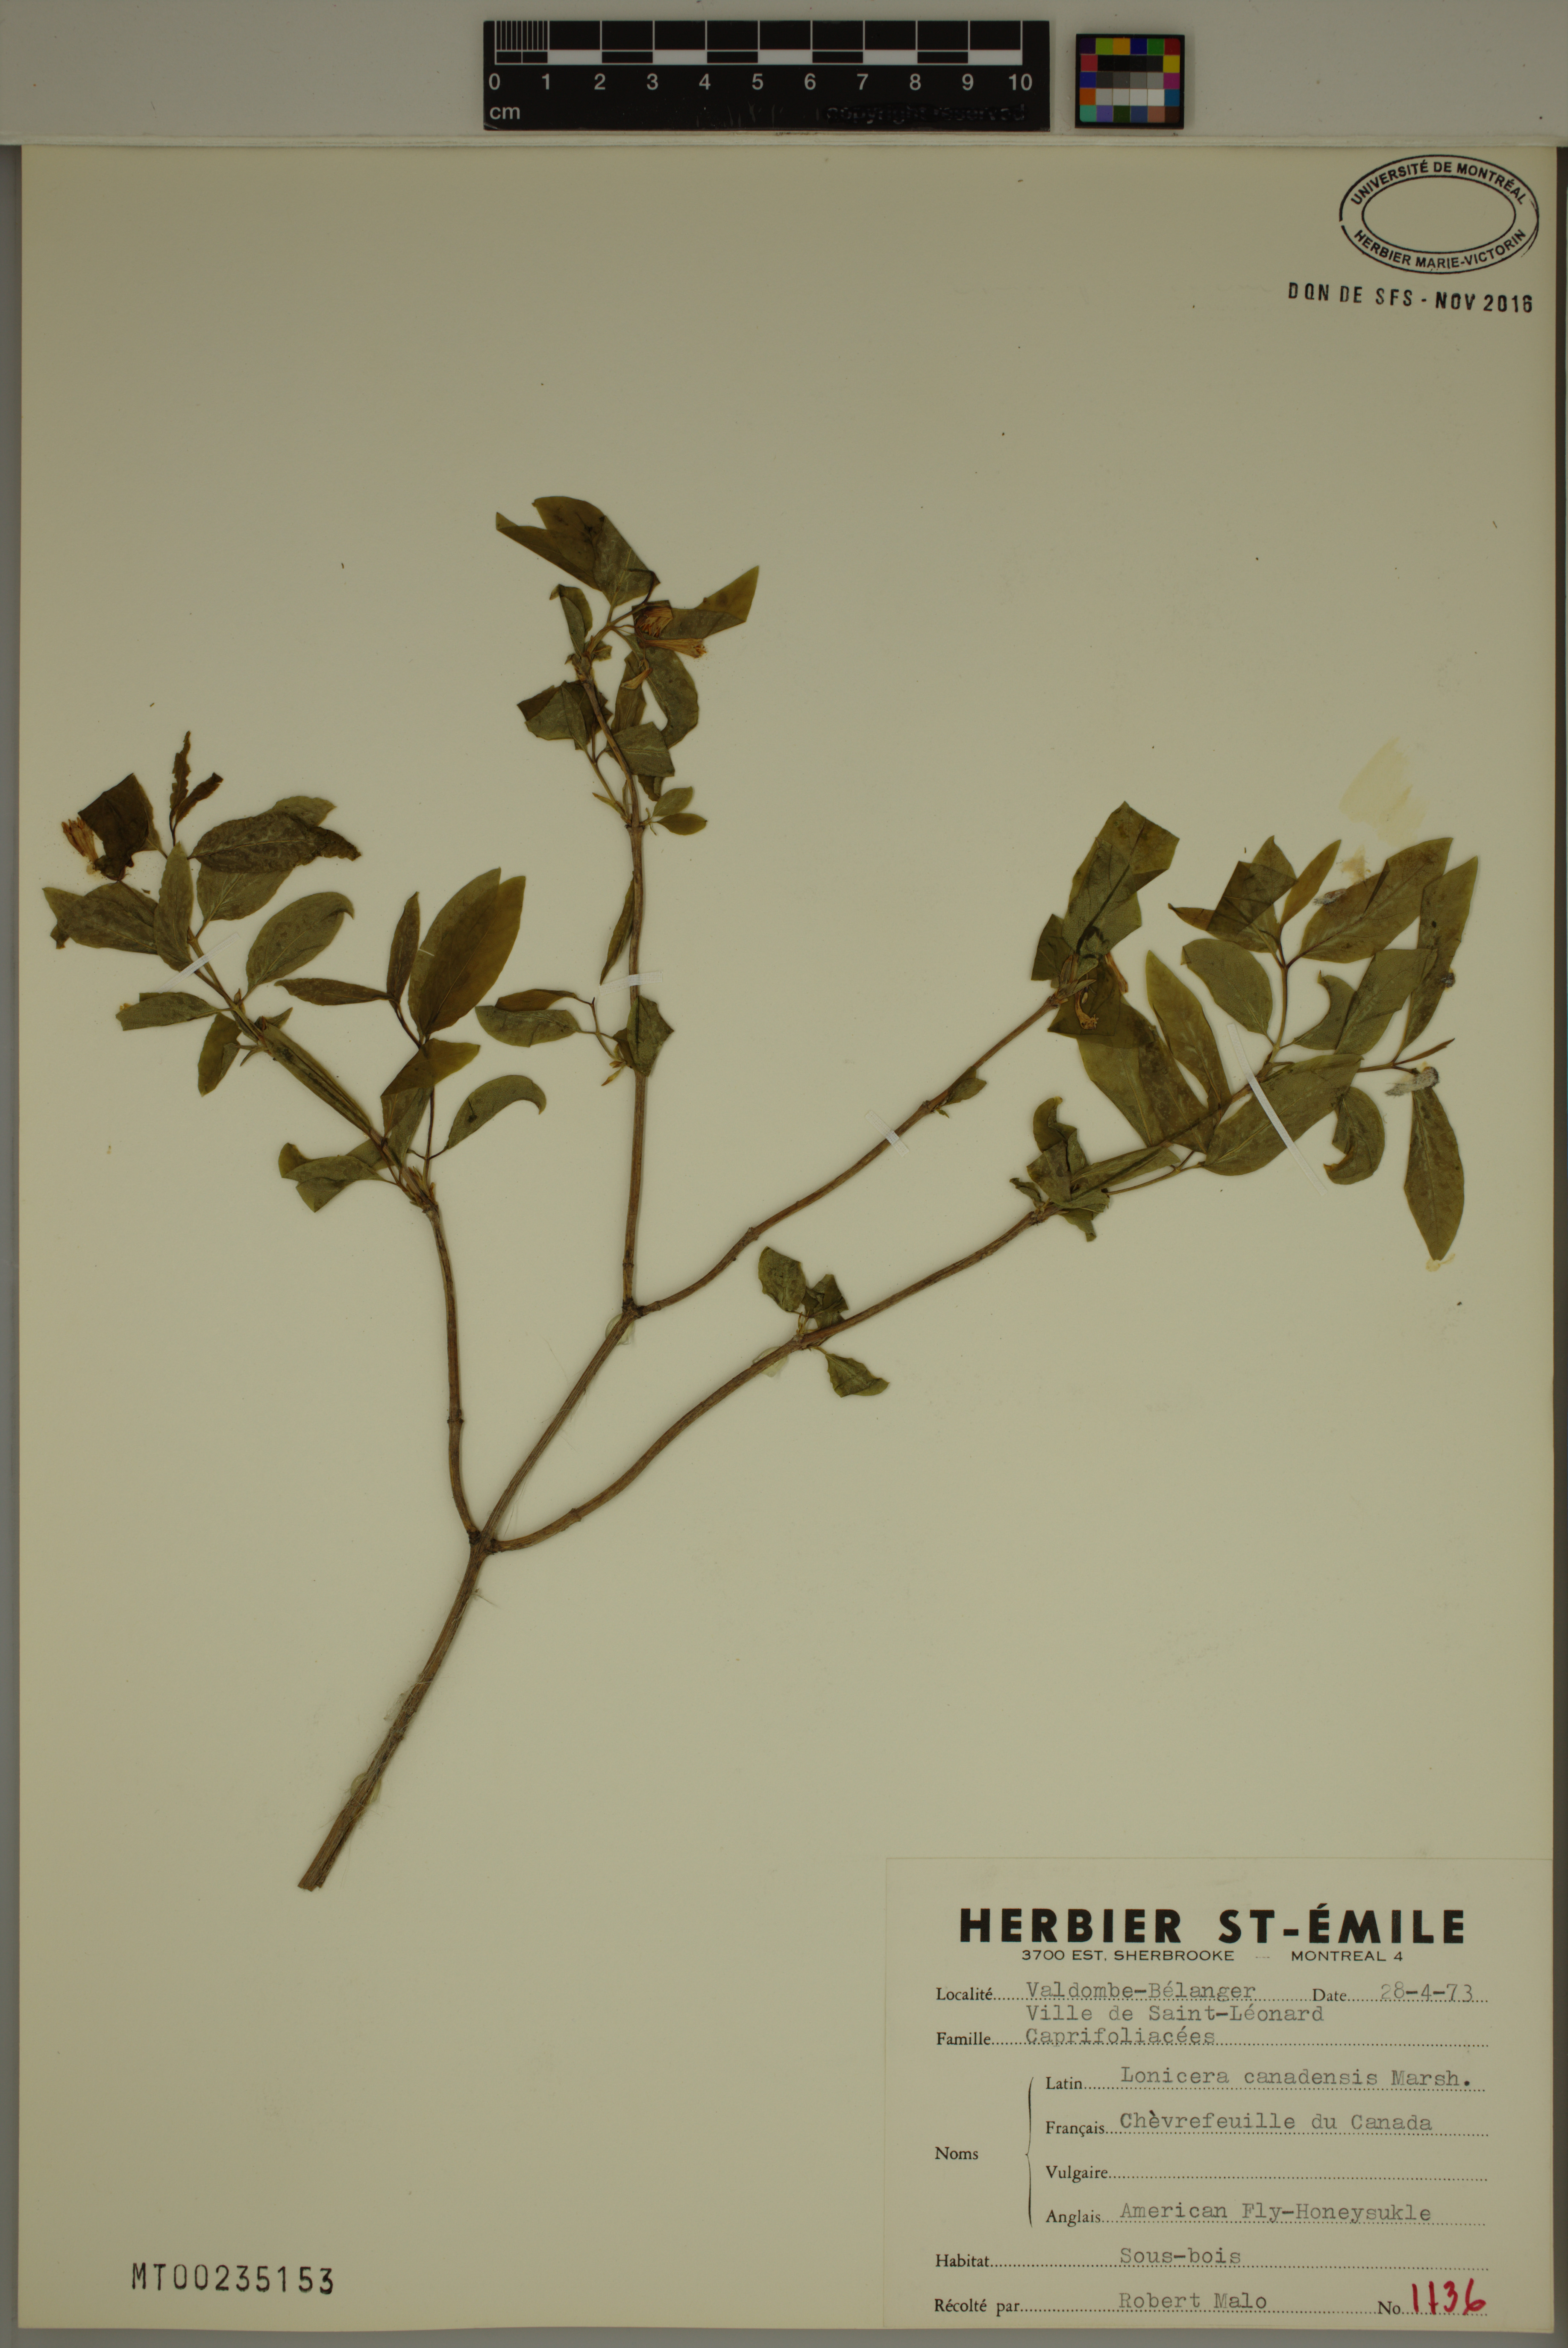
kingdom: Plantae
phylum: Tracheophyta
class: Magnoliopsida
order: Dipsacales
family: Caprifoliaceae
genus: Lonicera
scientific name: Lonicera canadensis
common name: American fly-honeysuckle
